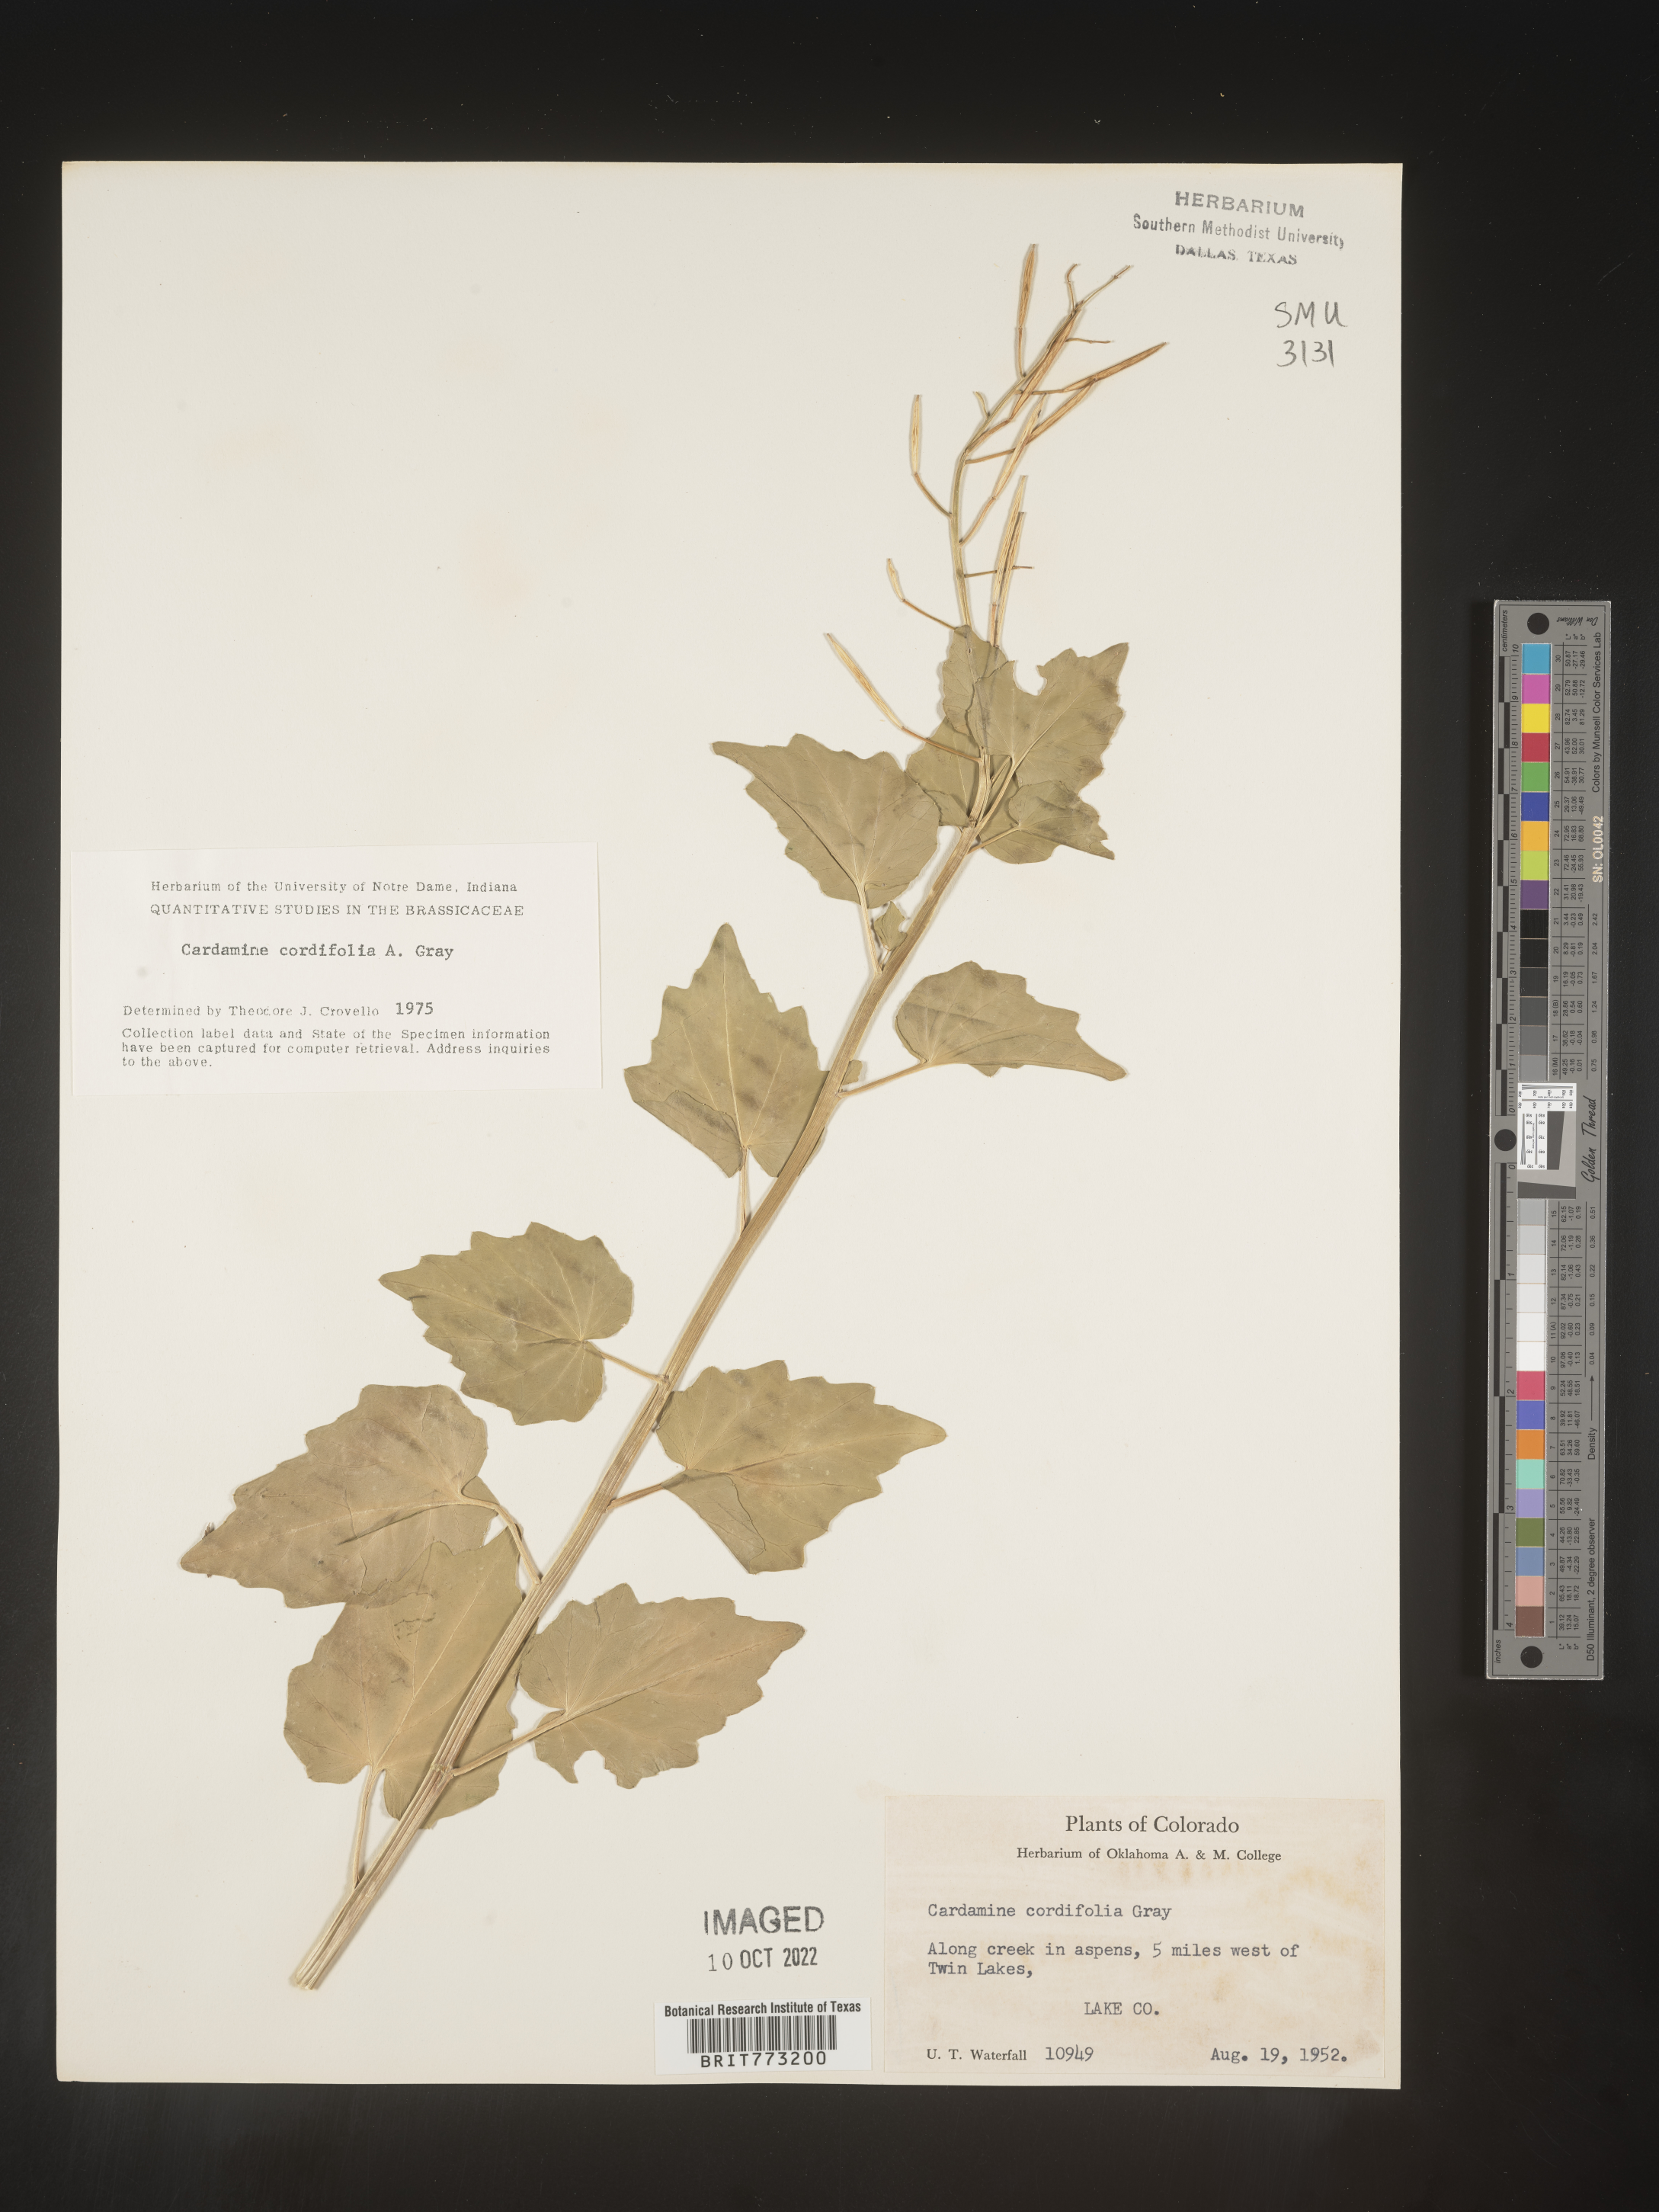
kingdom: Plantae
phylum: Tracheophyta
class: Magnoliopsida
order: Brassicales
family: Brassicaceae
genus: Cardamine
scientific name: Cardamine
